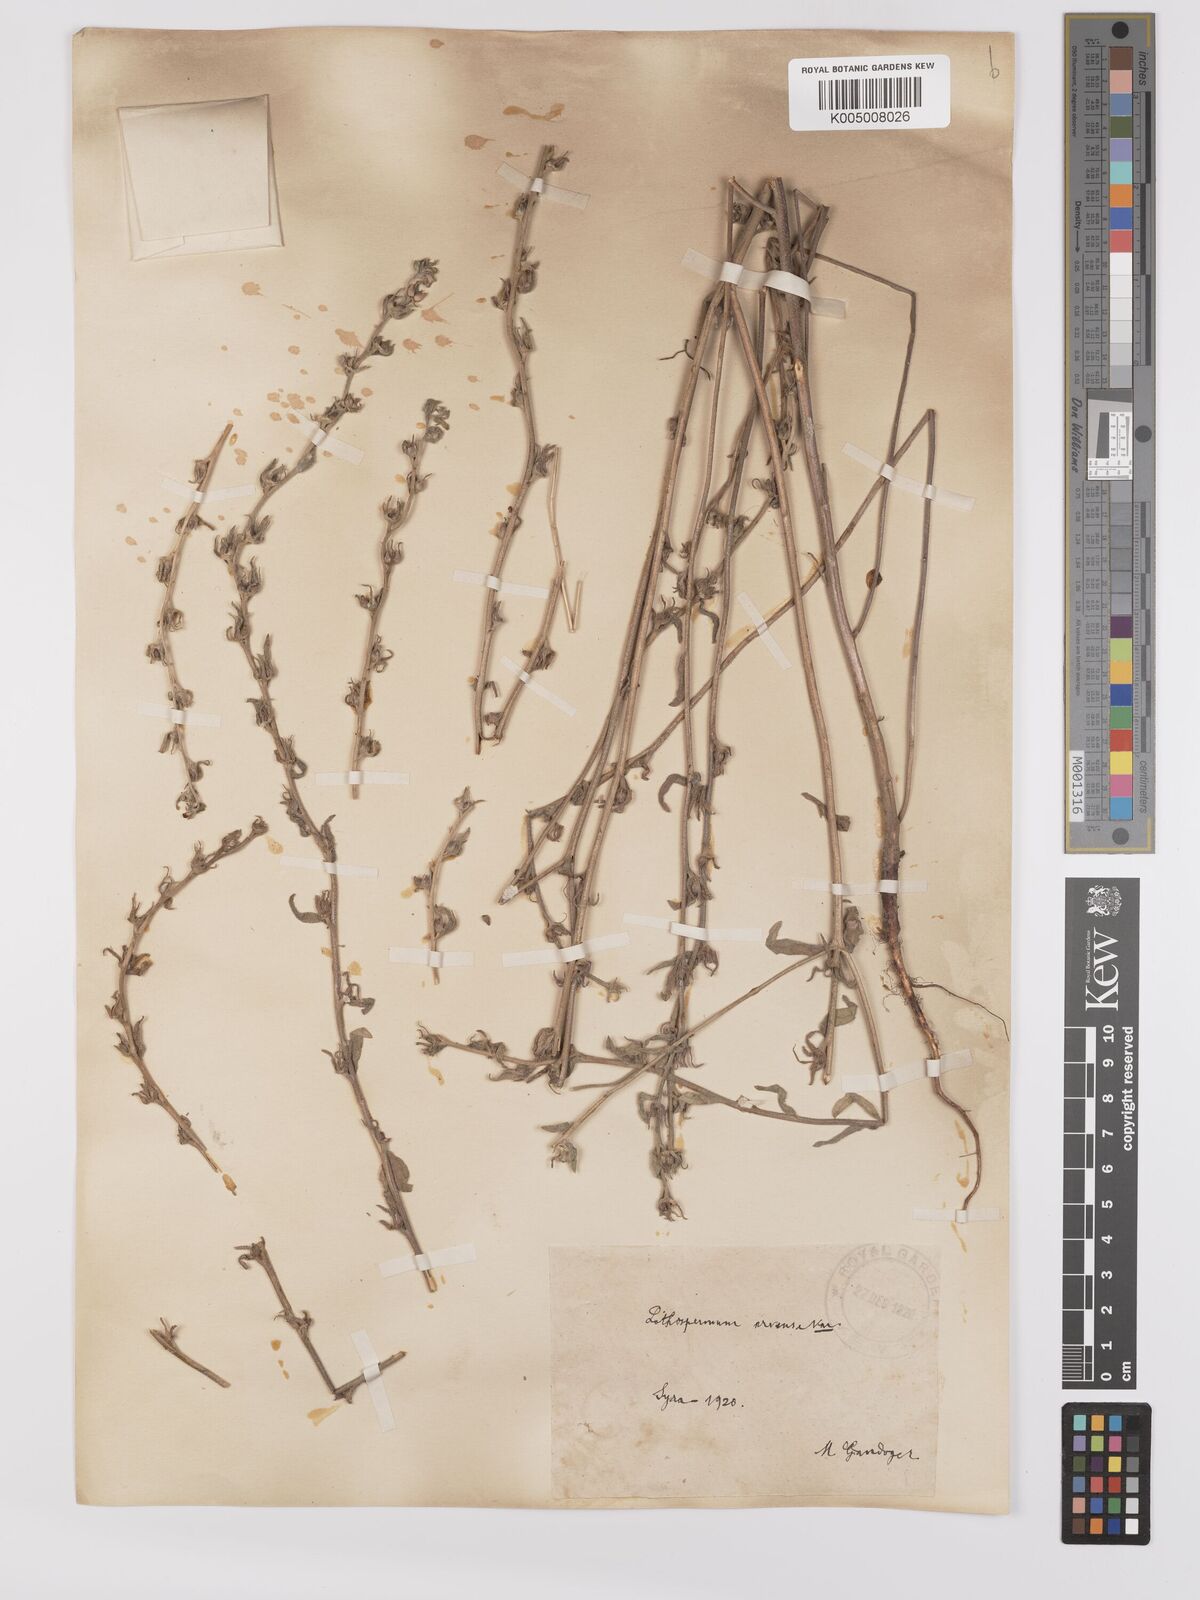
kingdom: Plantae
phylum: Tracheophyta
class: Magnoliopsida
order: Boraginales
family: Boraginaceae
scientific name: Boraginaceae
